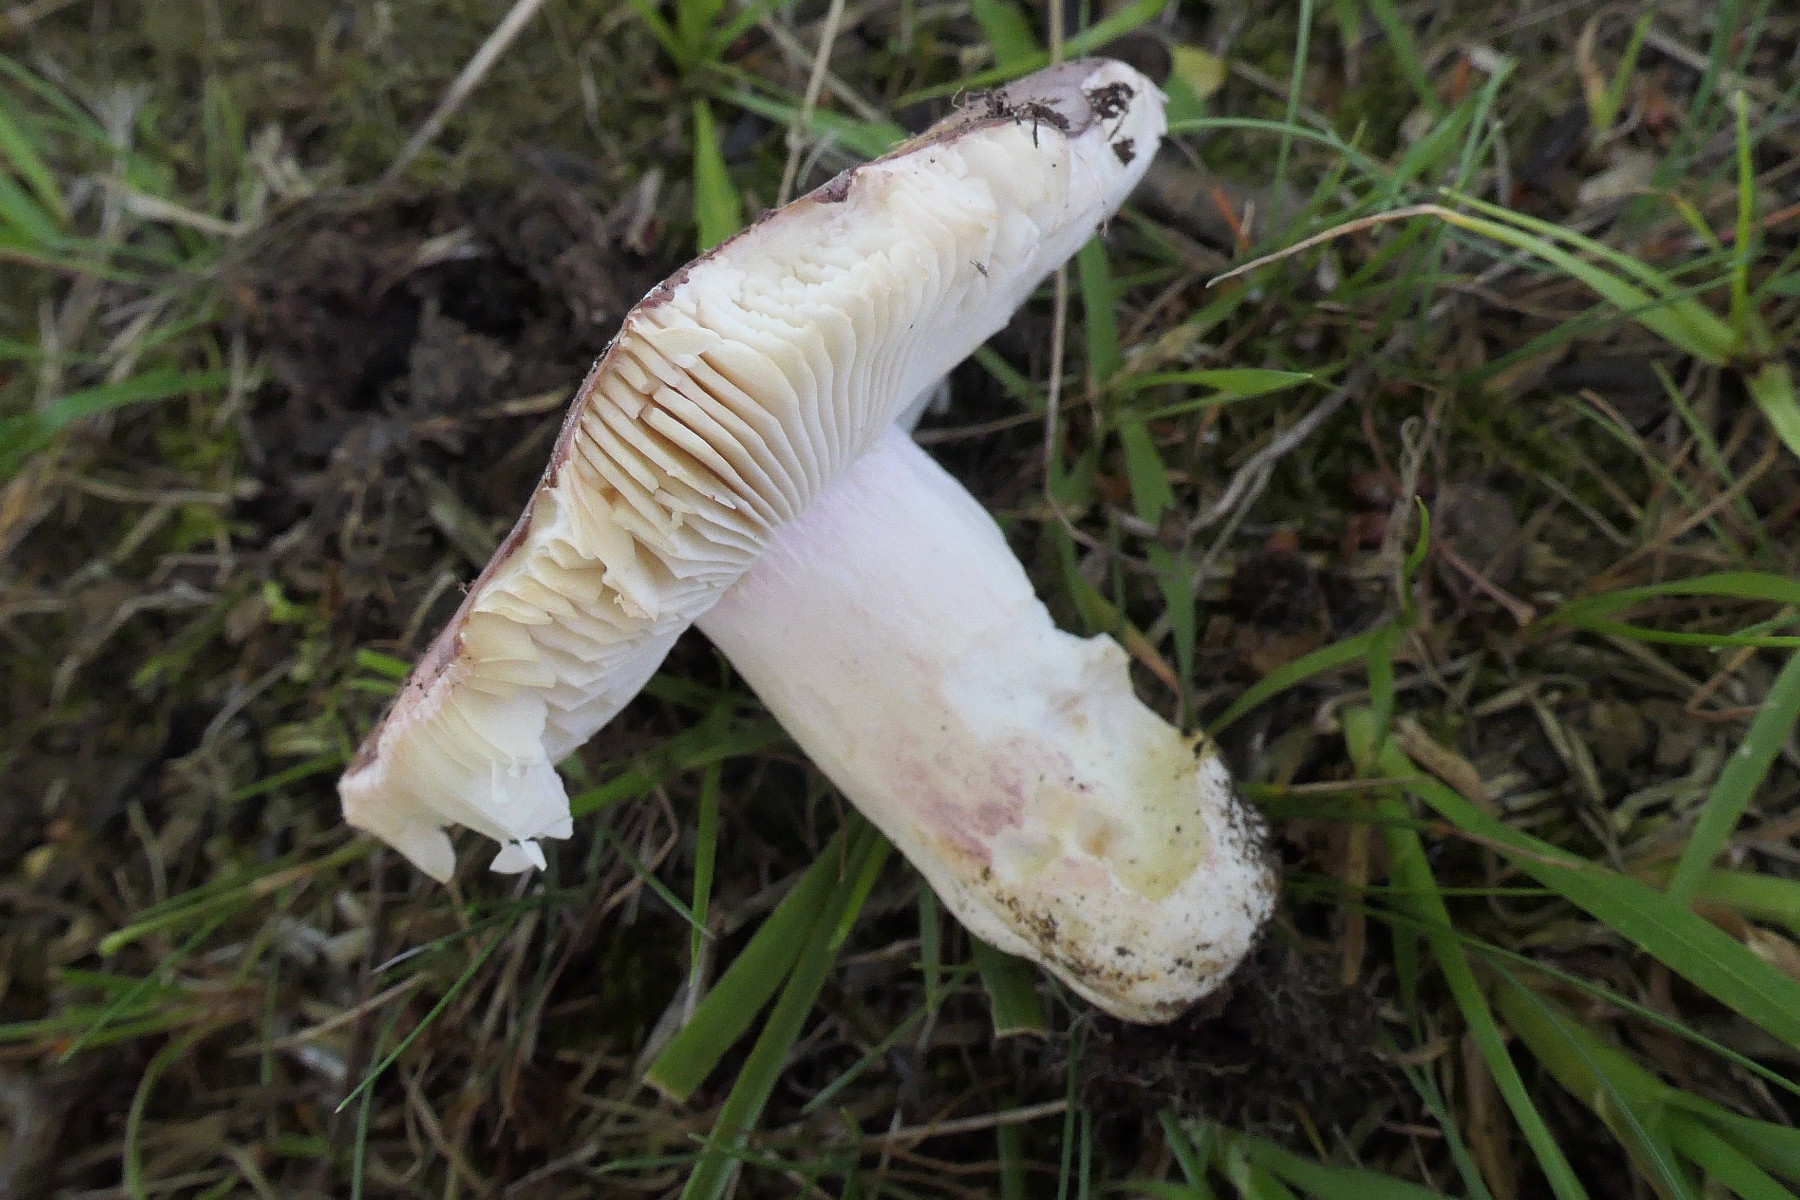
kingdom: Fungi
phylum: Basidiomycota
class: Agaricomycetes
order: Russulales
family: Russulaceae
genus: Russula
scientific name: Russula grisea
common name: grålig skørhat
